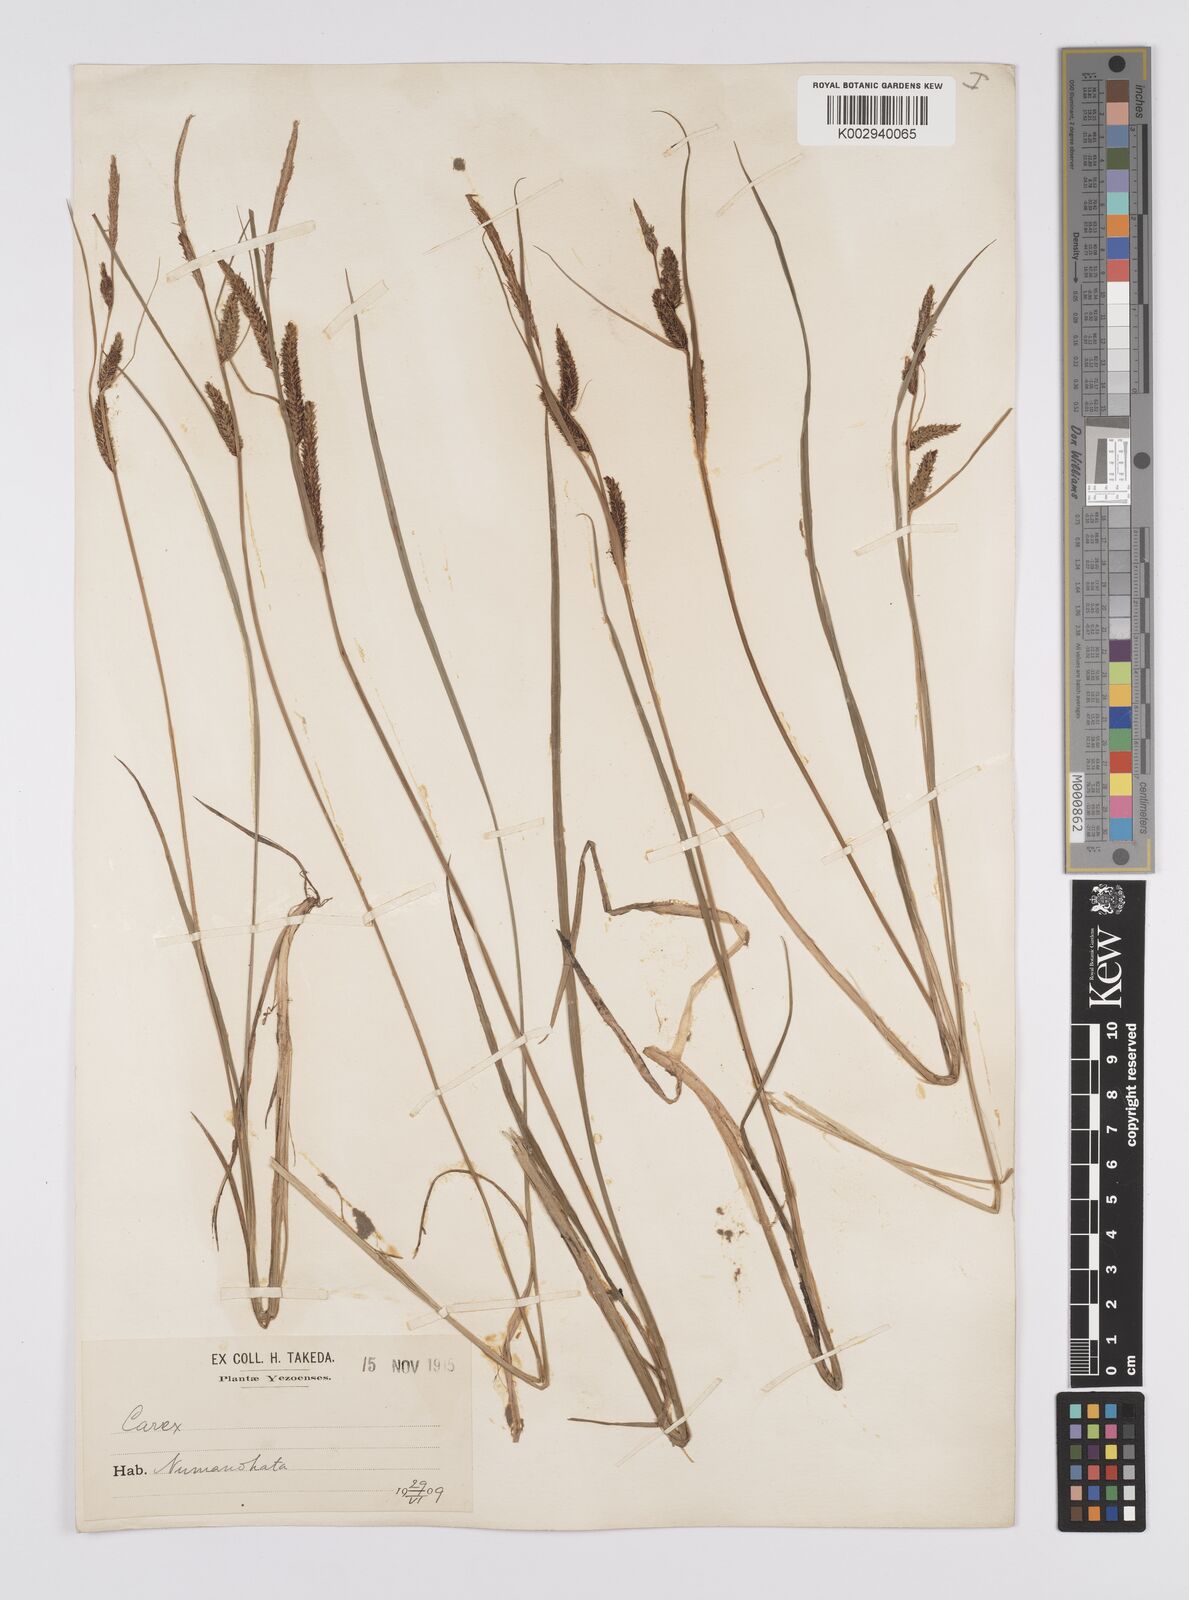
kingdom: Plantae
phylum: Tracheophyta
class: Liliopsida
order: Poales
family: Cyperaceae
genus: Carex
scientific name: Carex thunbergii
